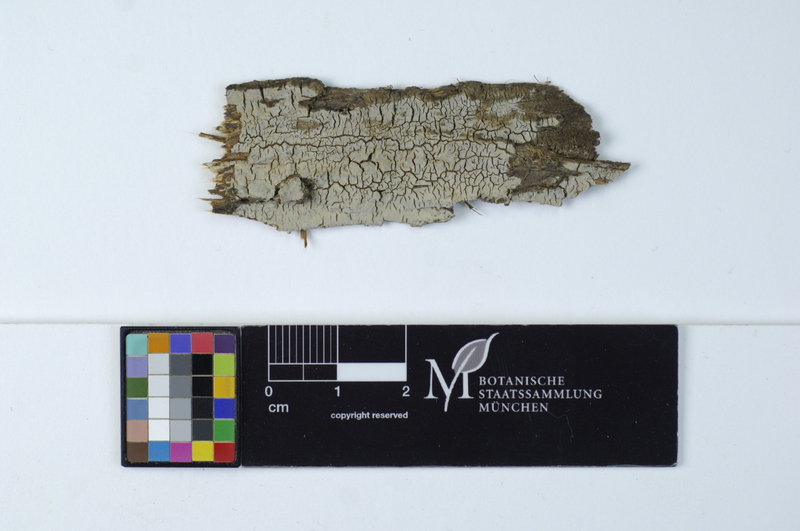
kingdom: Plantae
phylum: Tracheophyta
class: Pinopsida
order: Pinales
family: Cupressaceae
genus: Juniperus
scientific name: Juniperus communis
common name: Common juniper
